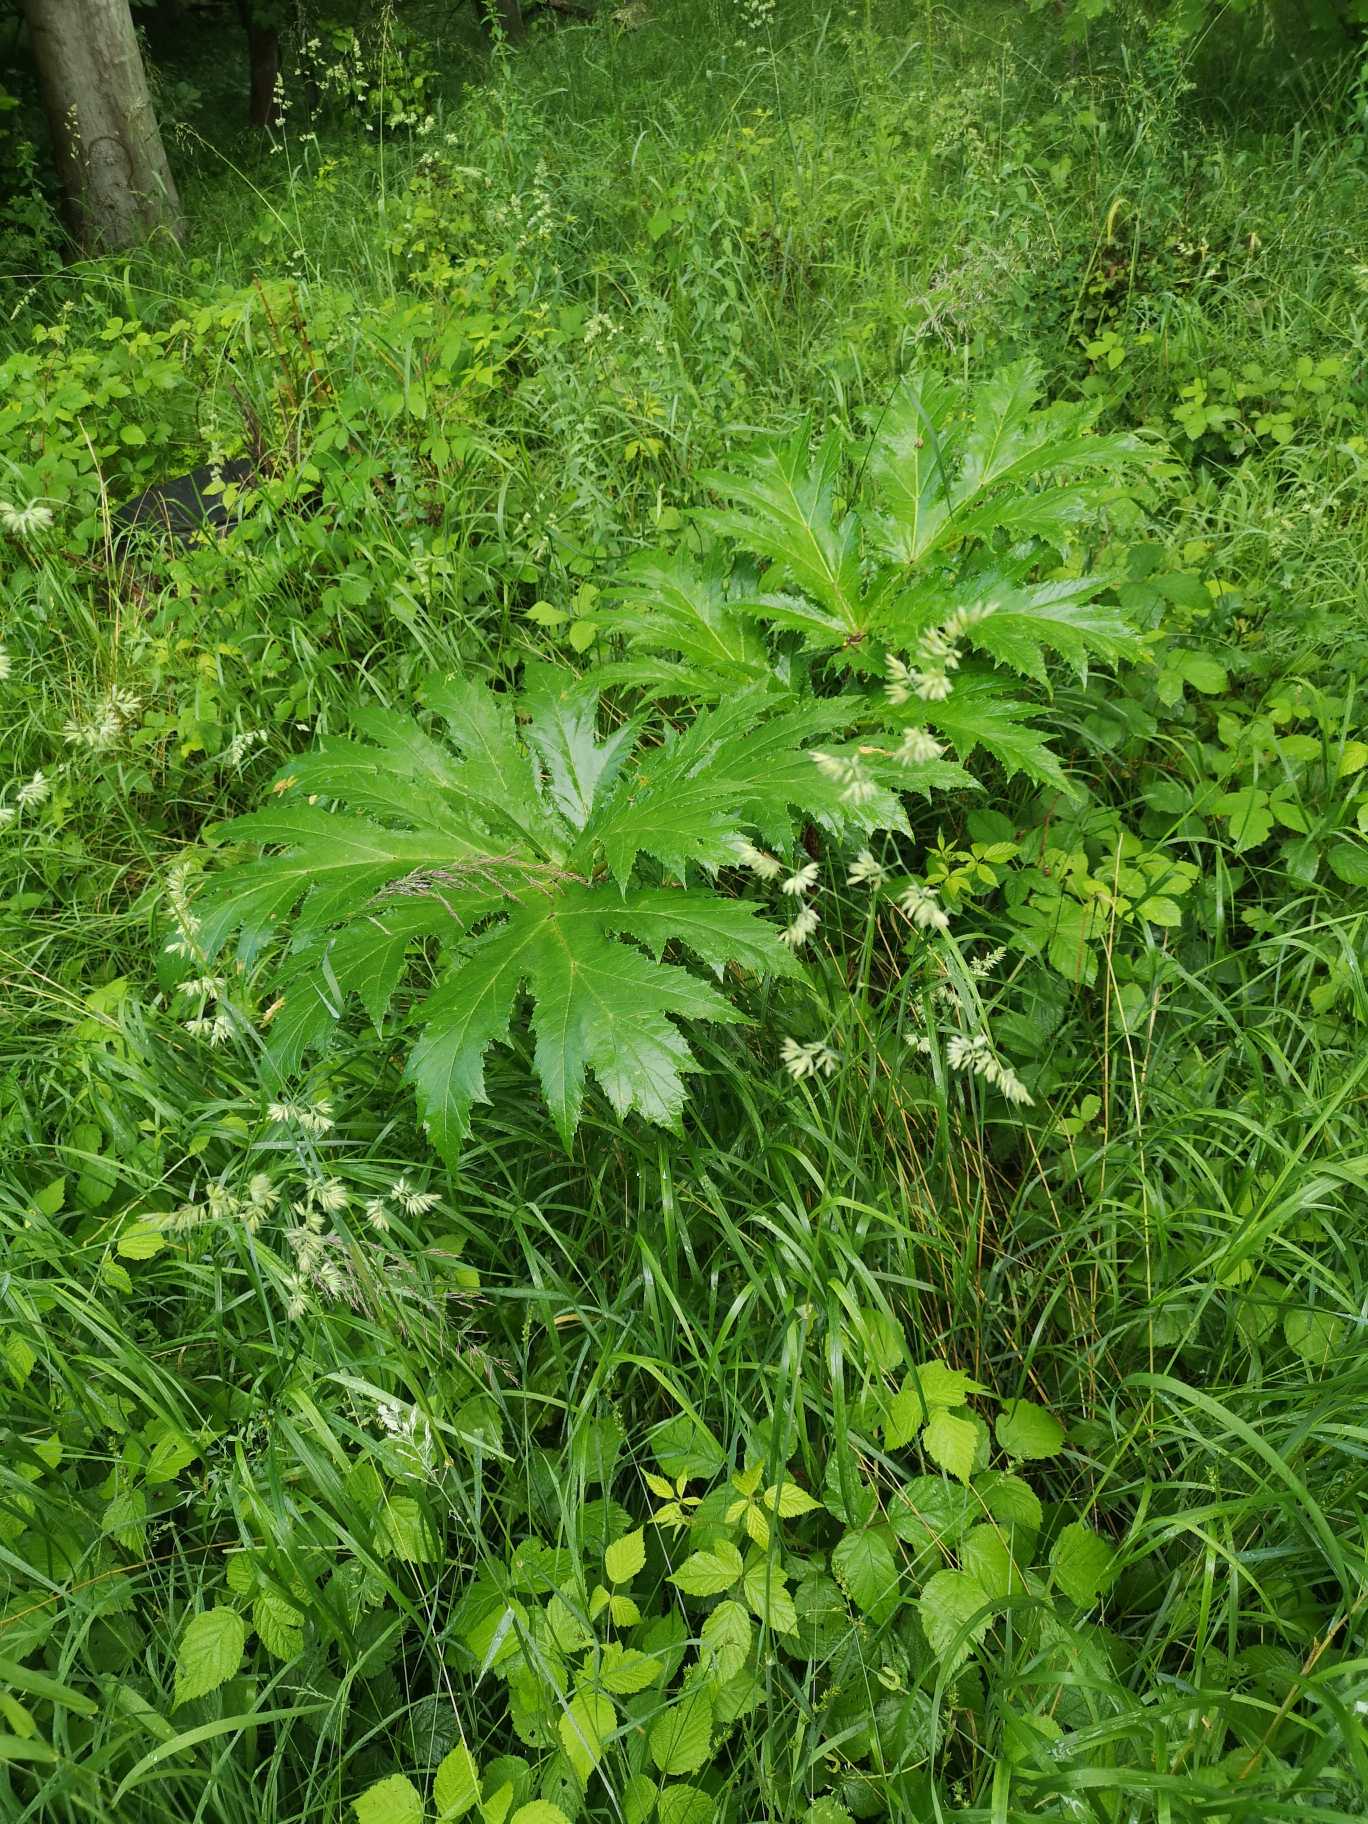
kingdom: Plantae
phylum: Tracheophyta
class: Magnoliopsida
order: Apiales
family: Apiaceae
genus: Heracleum
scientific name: Heracleum mantegazzianum
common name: Kæmpe-bjørneklo
